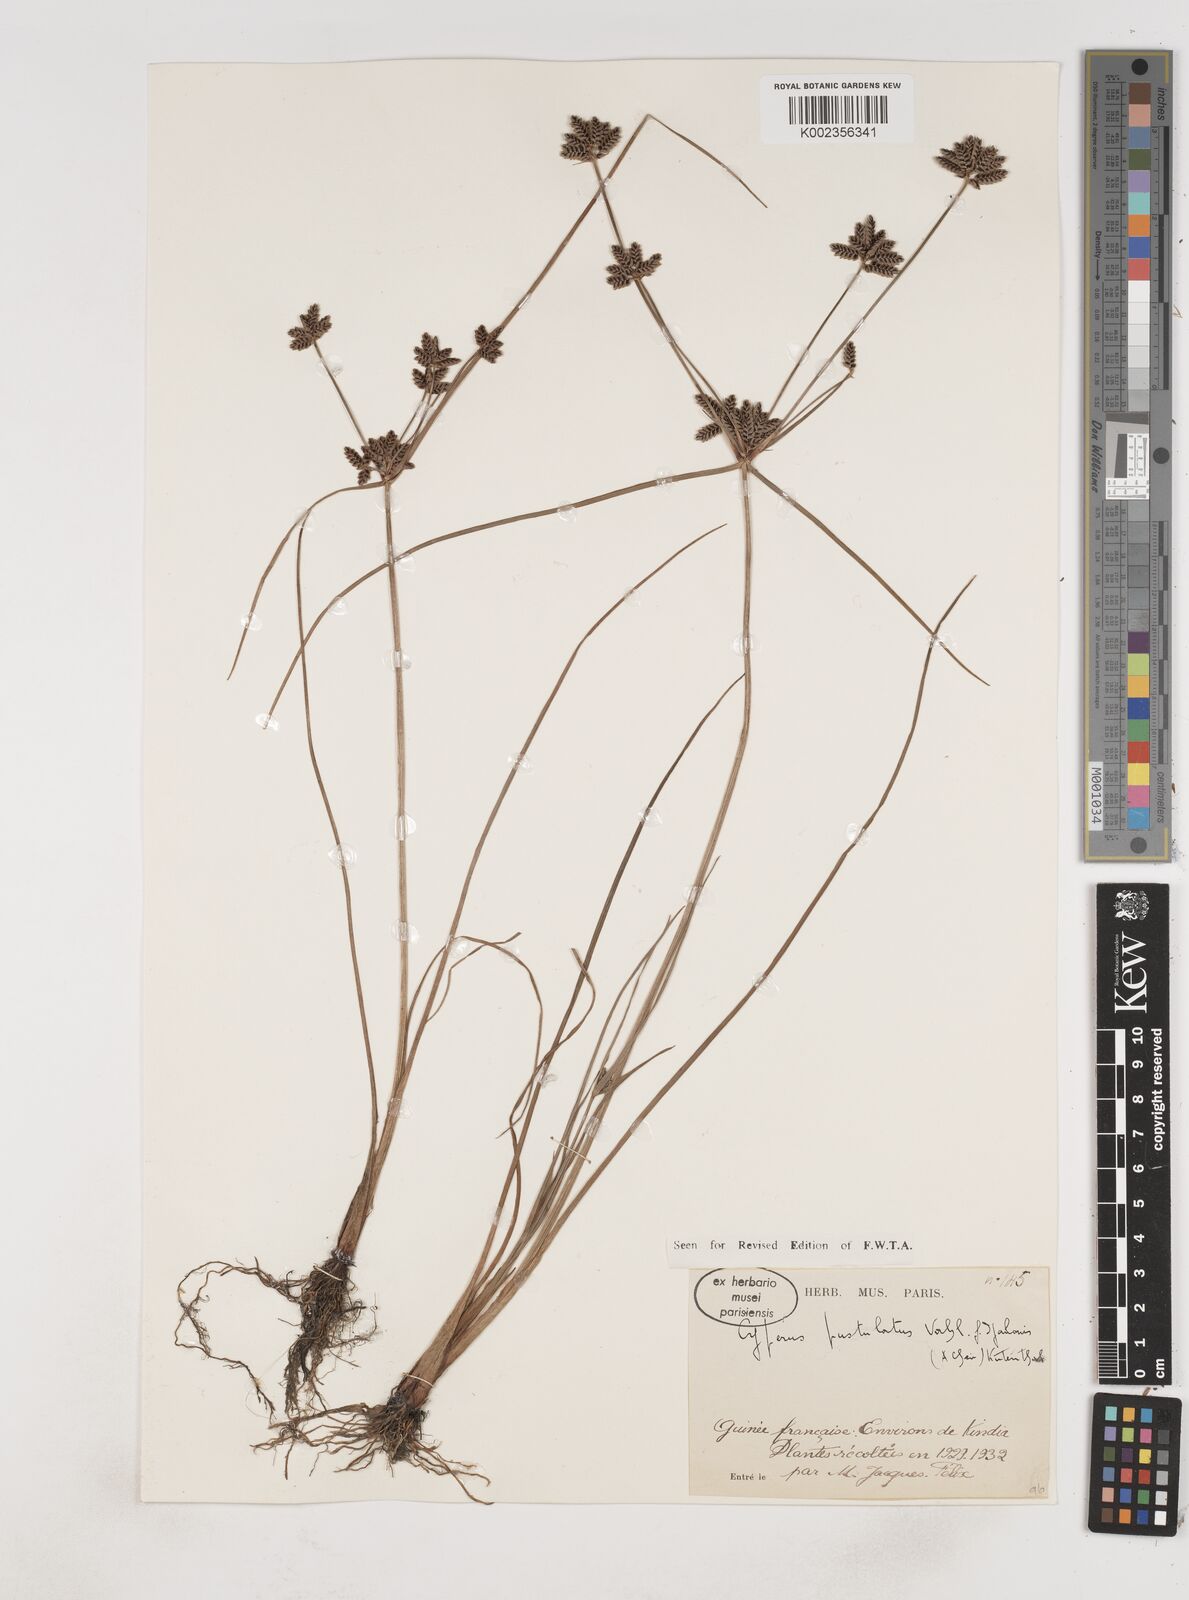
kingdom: Plantae
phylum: Tracheophyta
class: Liliopsida
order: Poales
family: Cyperaceae
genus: Cyperus
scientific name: Cyperus pustulatus
